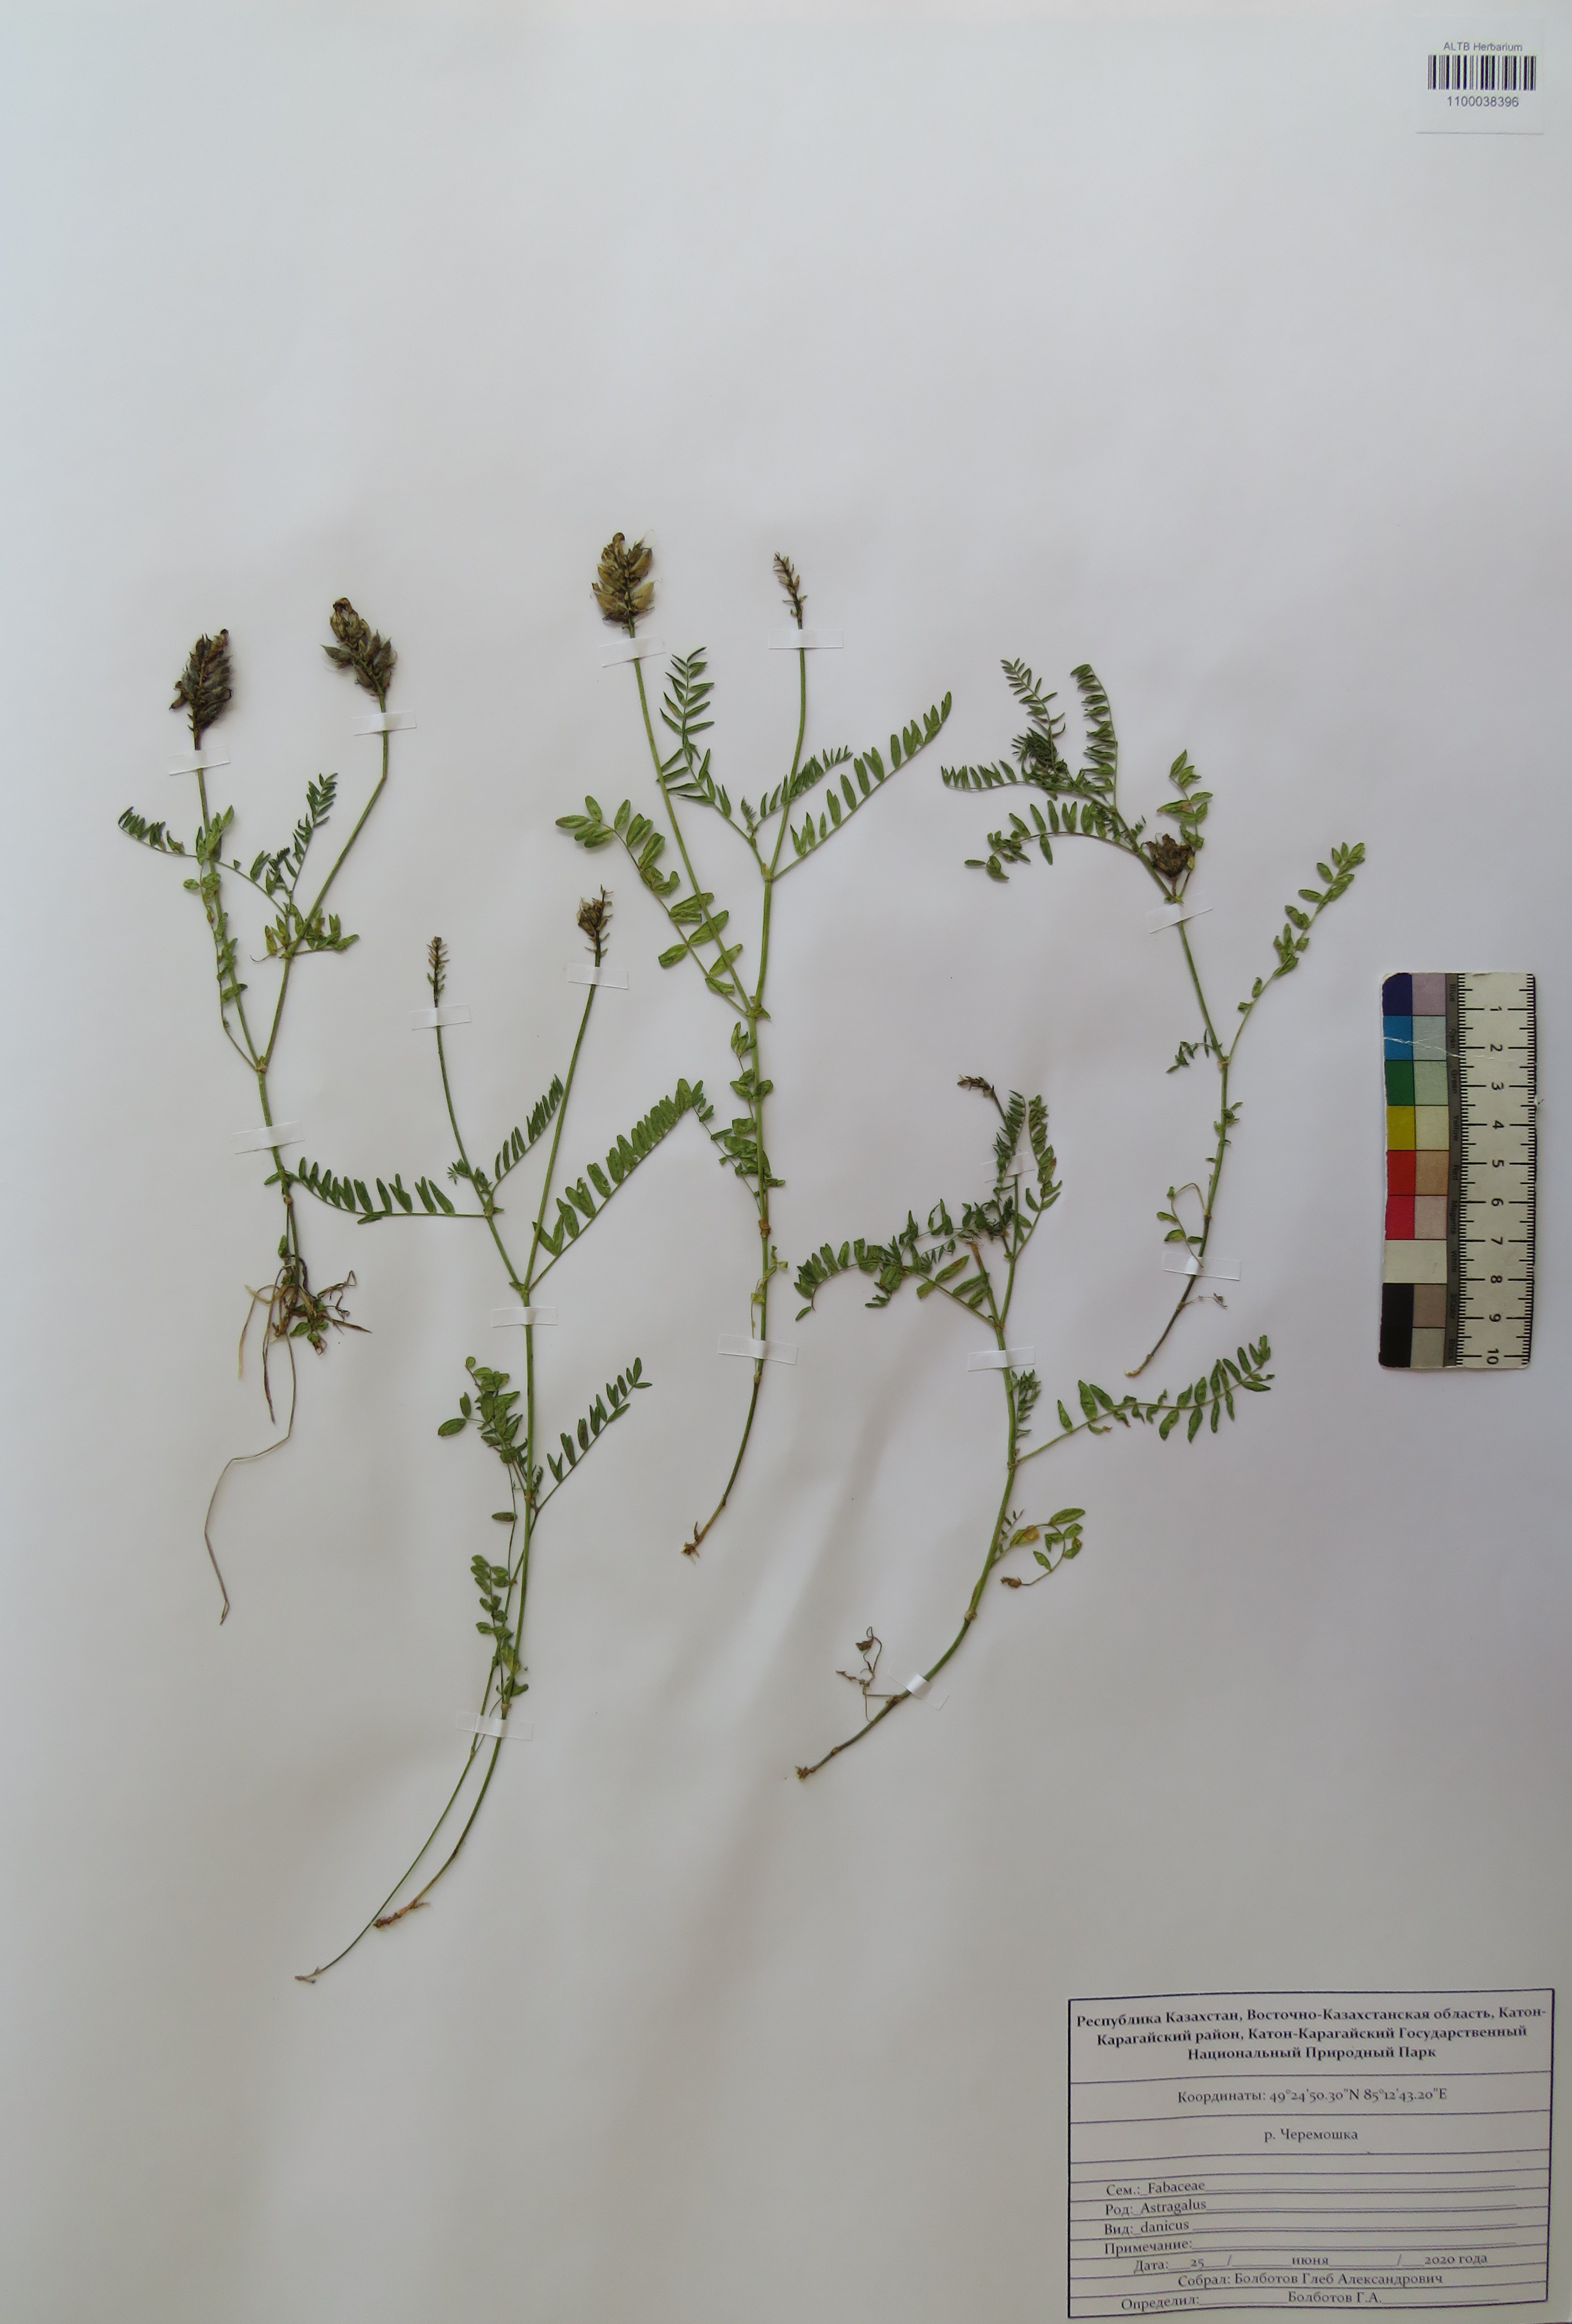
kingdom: Plantae
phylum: Tracheophyta
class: Magnoliopsida
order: Fabales
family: Fabaceae
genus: Astragalus
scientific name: Astragalus danicus
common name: Purple milk-vetch
